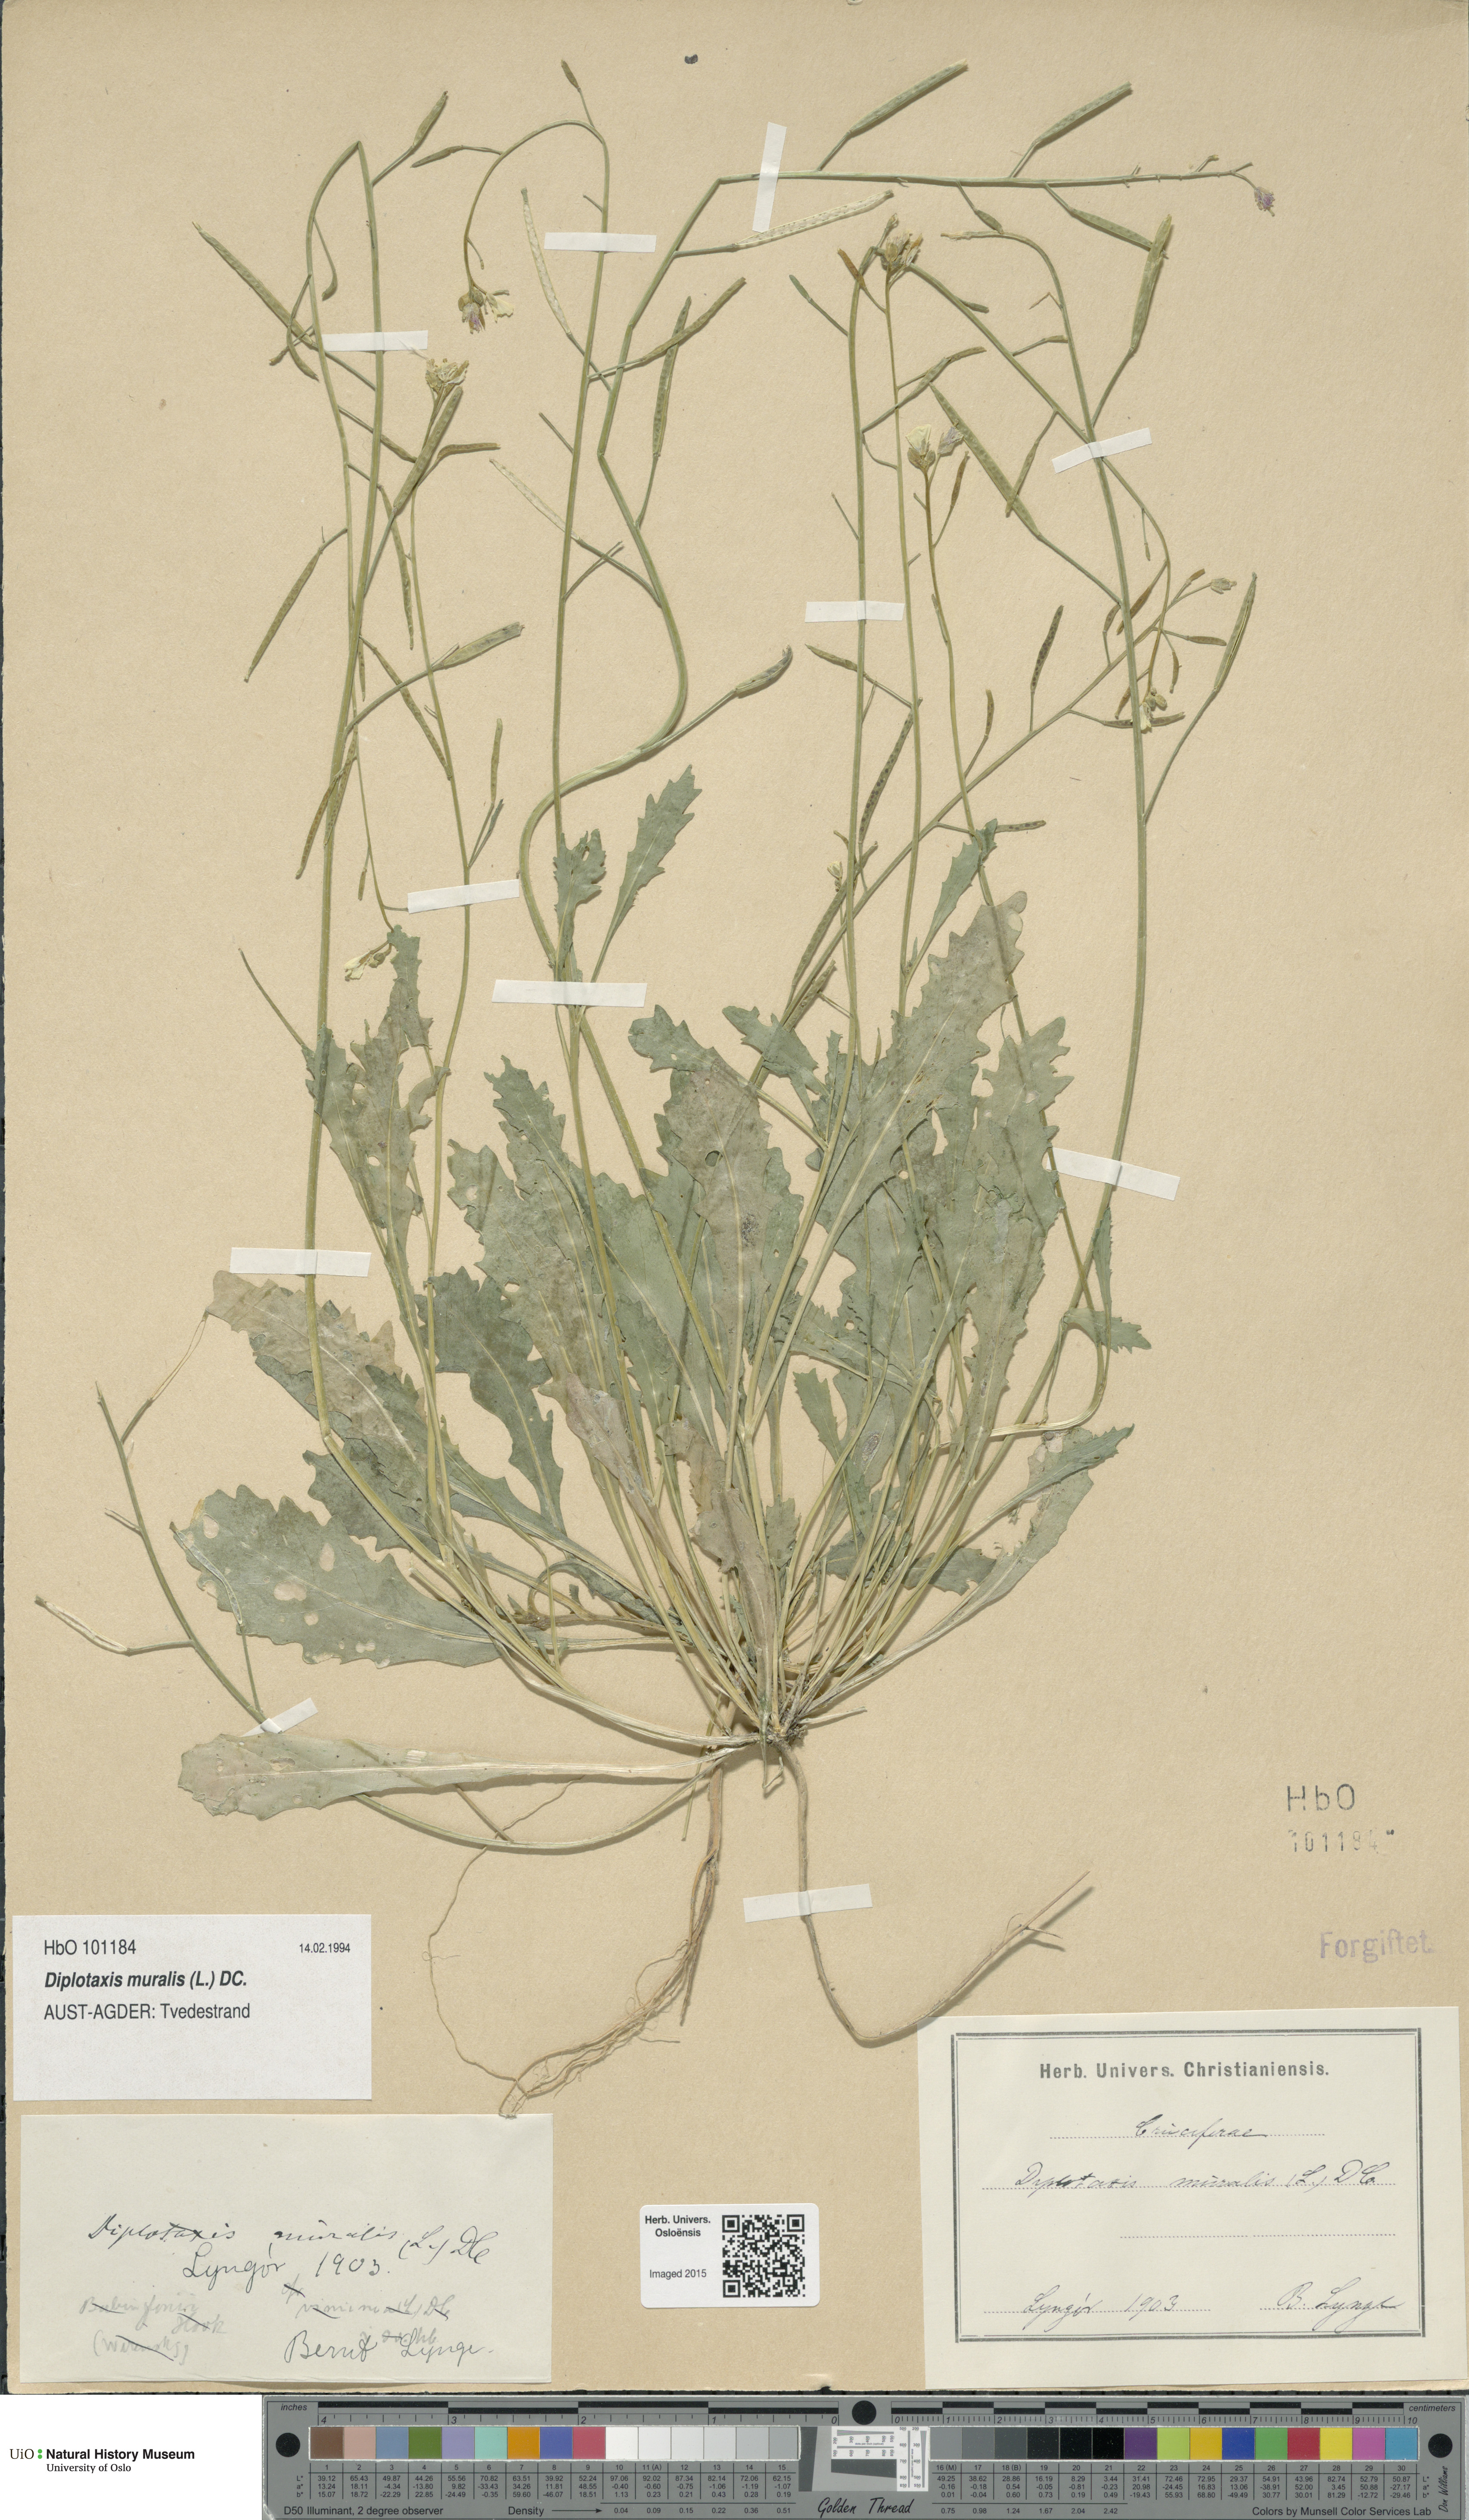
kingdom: Plantae
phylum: Tracheophyta
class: Magnoliopsida
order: Brassicales
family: Brassicaceae
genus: Diplotaxis
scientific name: Diplotaxis muralis
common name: Annual wall-rocket
